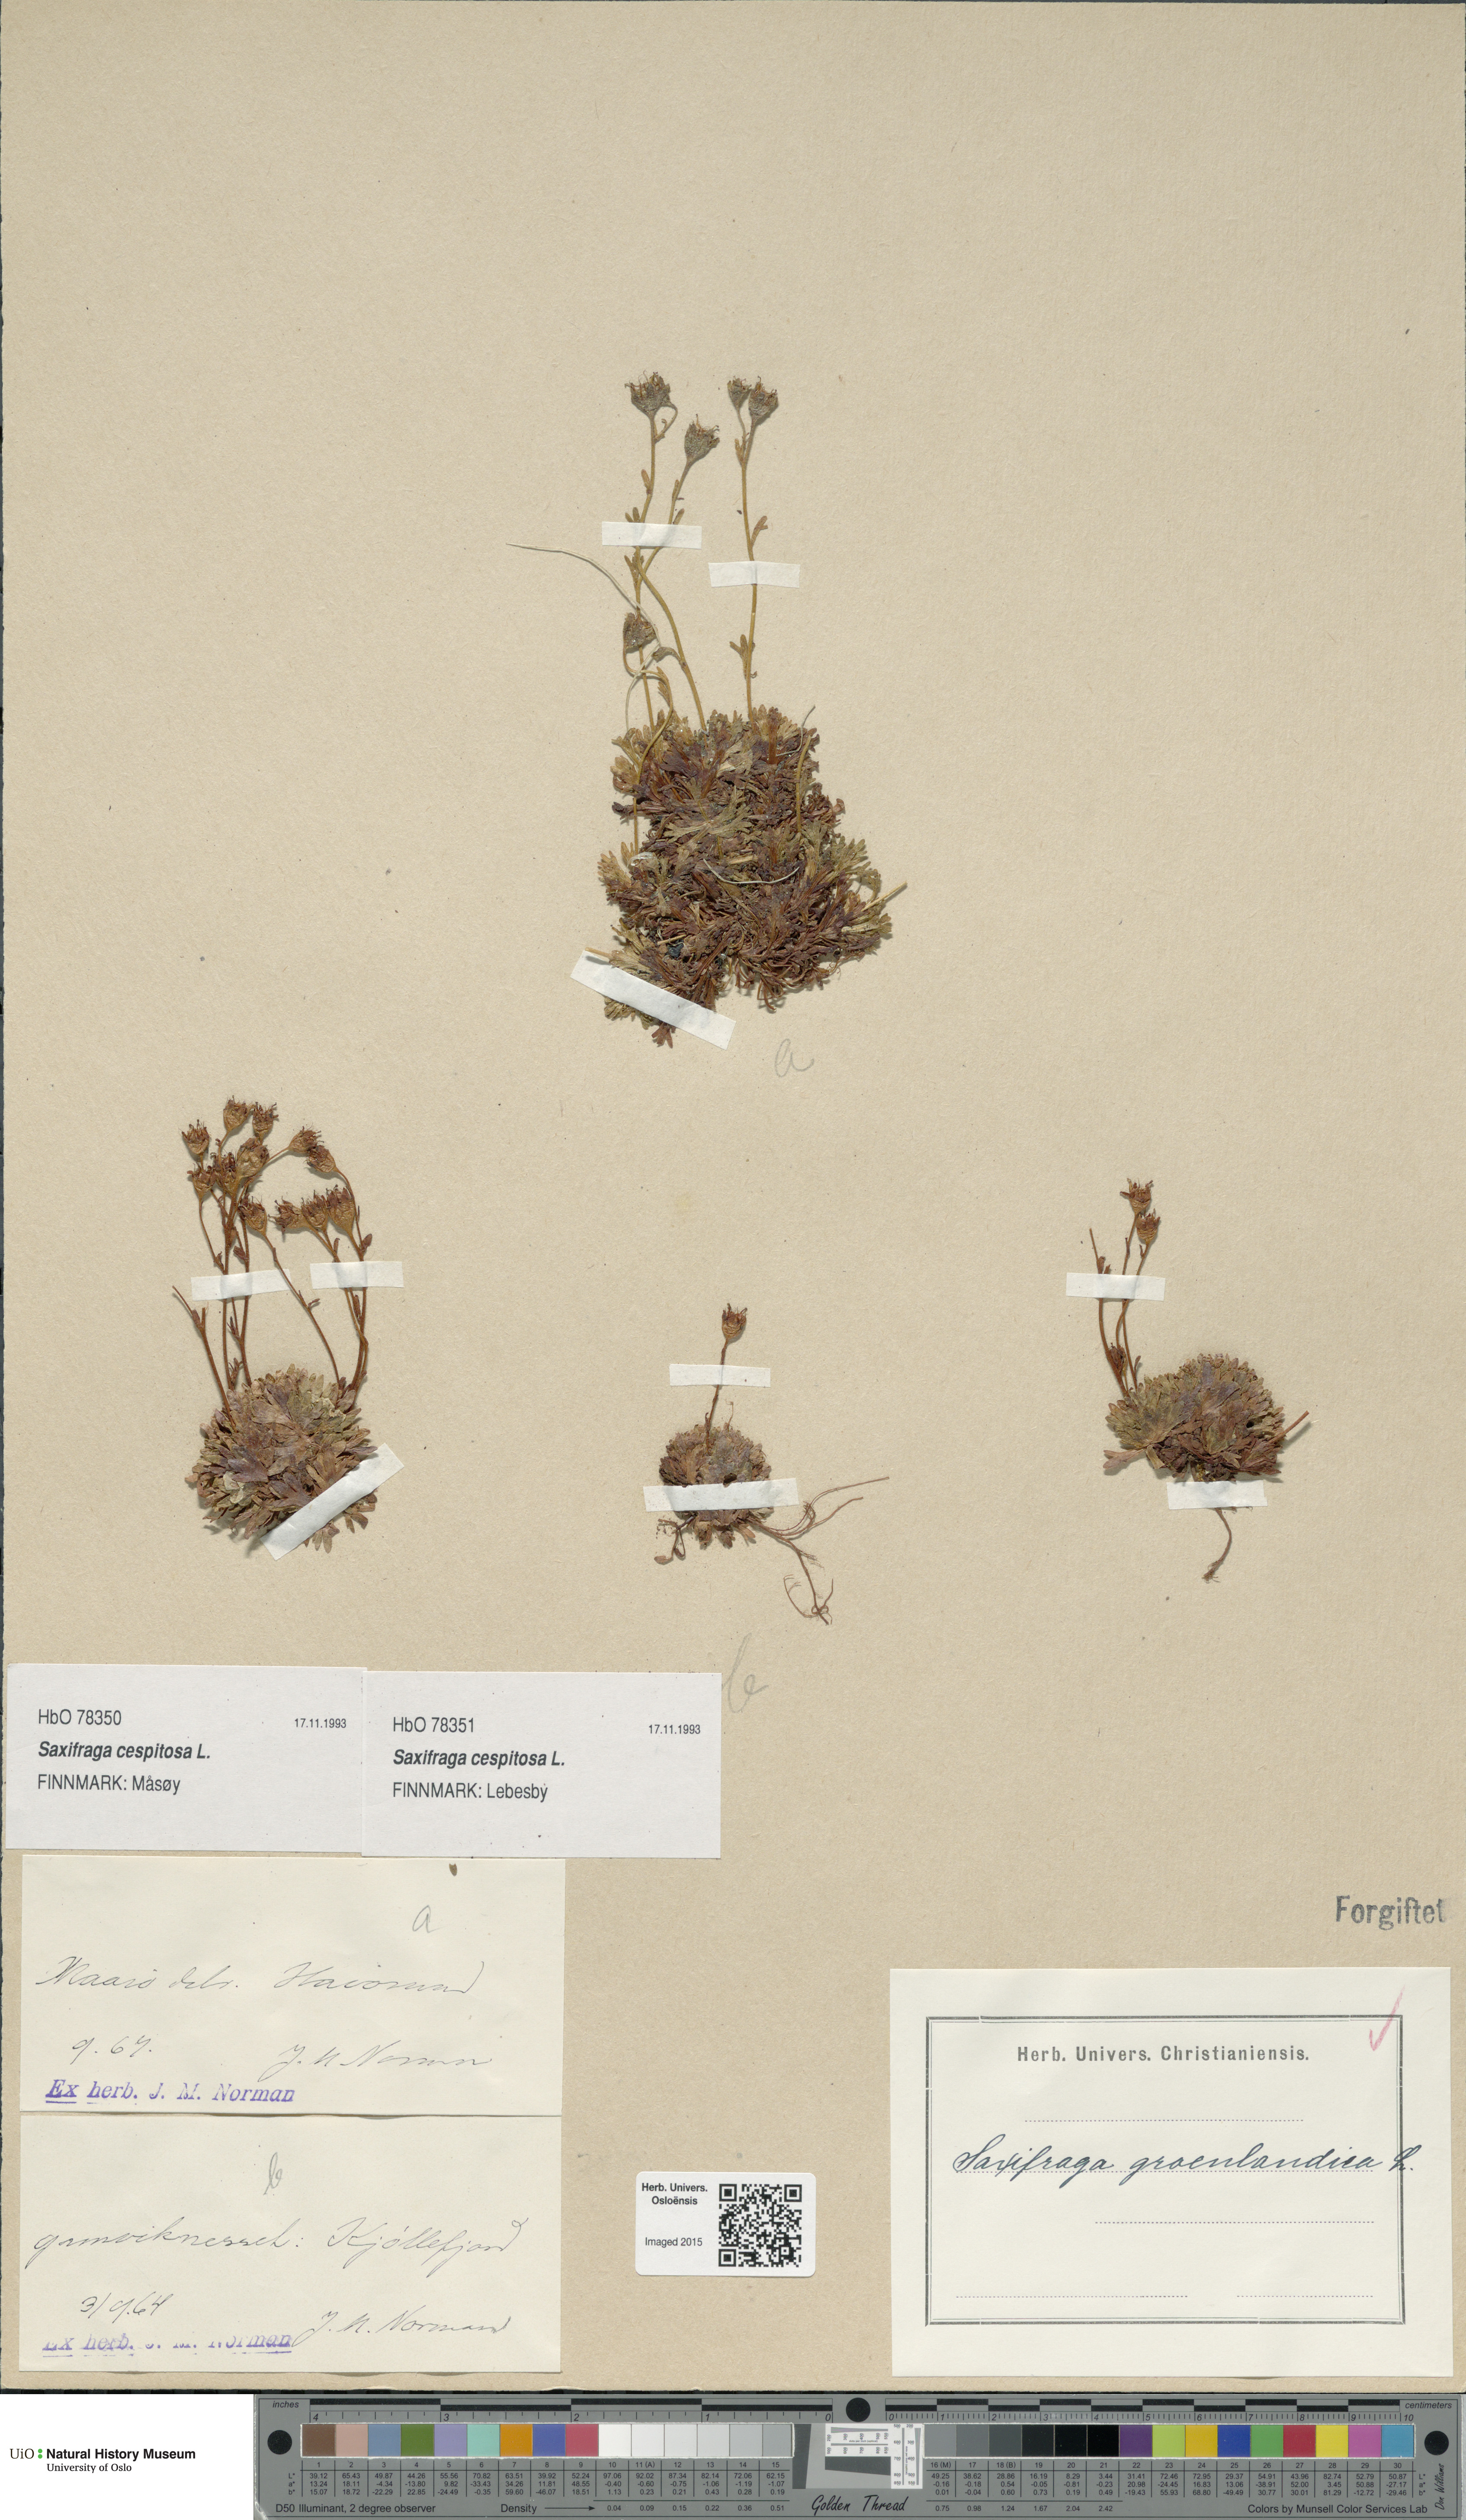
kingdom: Plantae
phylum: Tracheophyta
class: Magnoliopsida
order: Saxifragales
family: Saxifragaceae
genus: Saxifraga
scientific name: Saxifraga cespitosa
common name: Tufted saxifrage
